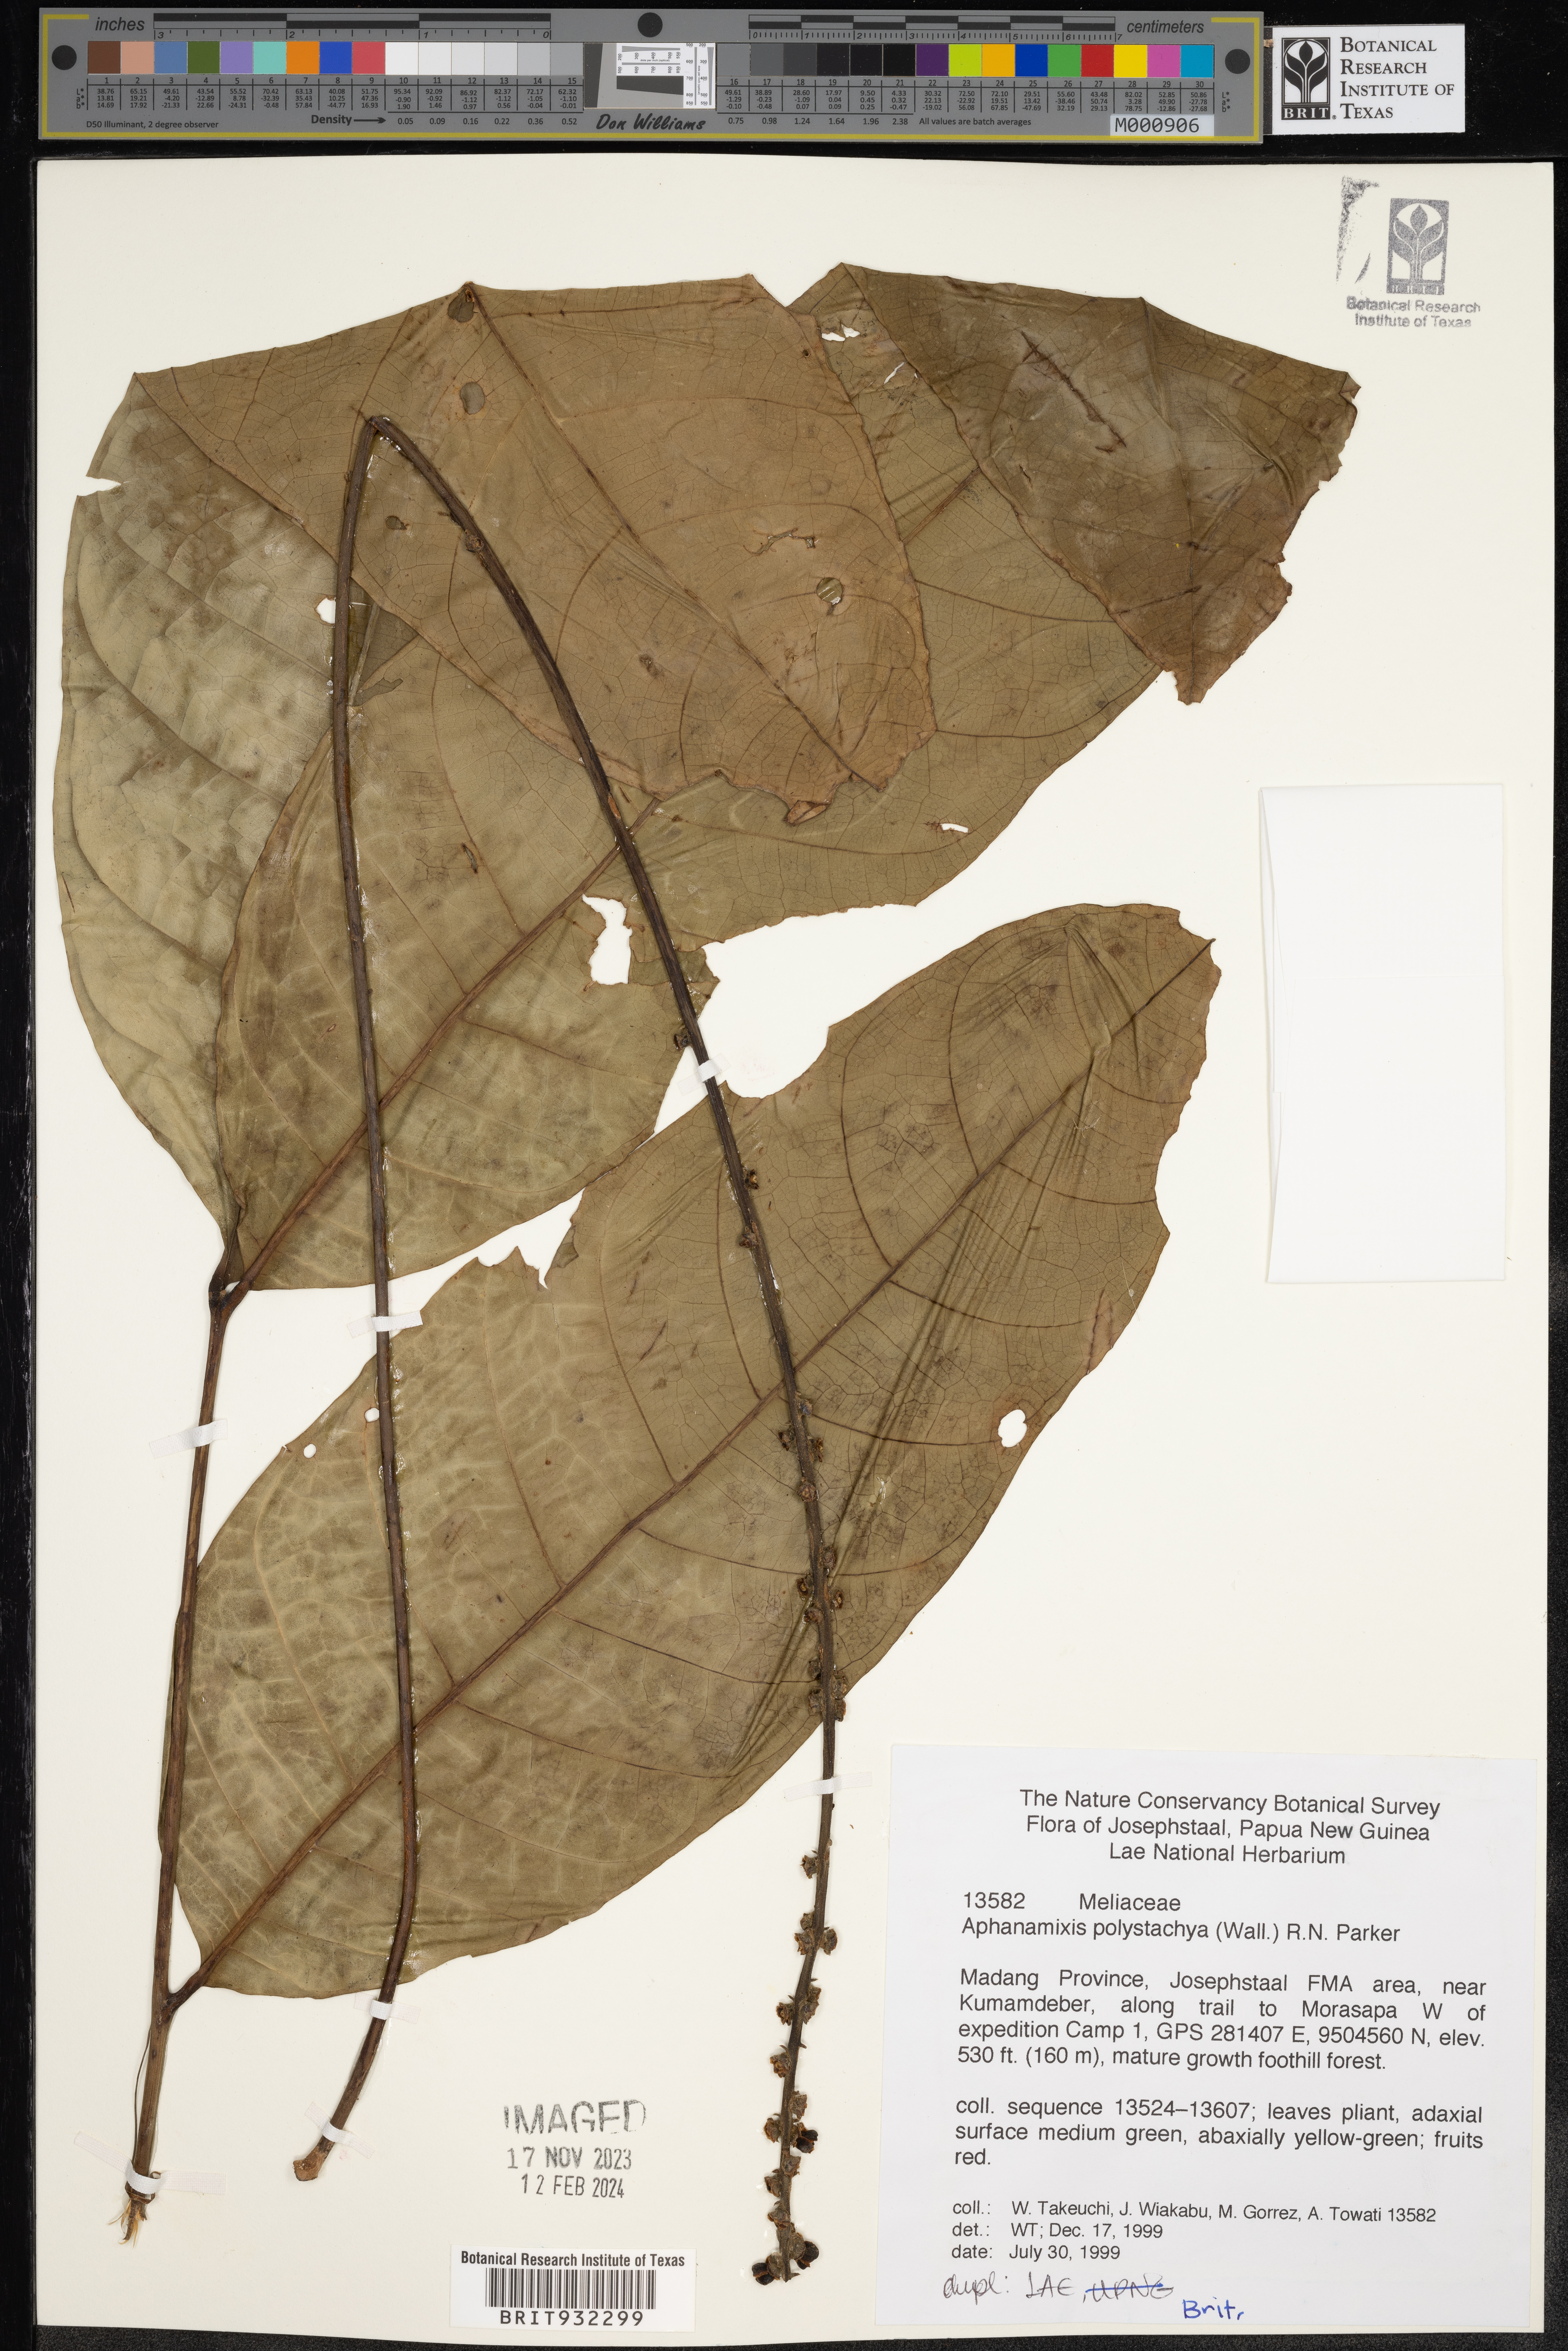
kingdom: Plantae
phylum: Tracheophyta
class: Magnoliopsida
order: Sapindales
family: Meliaceae
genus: Aphanamixis
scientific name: Aphanamixis polystachya
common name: Pithraj tree
